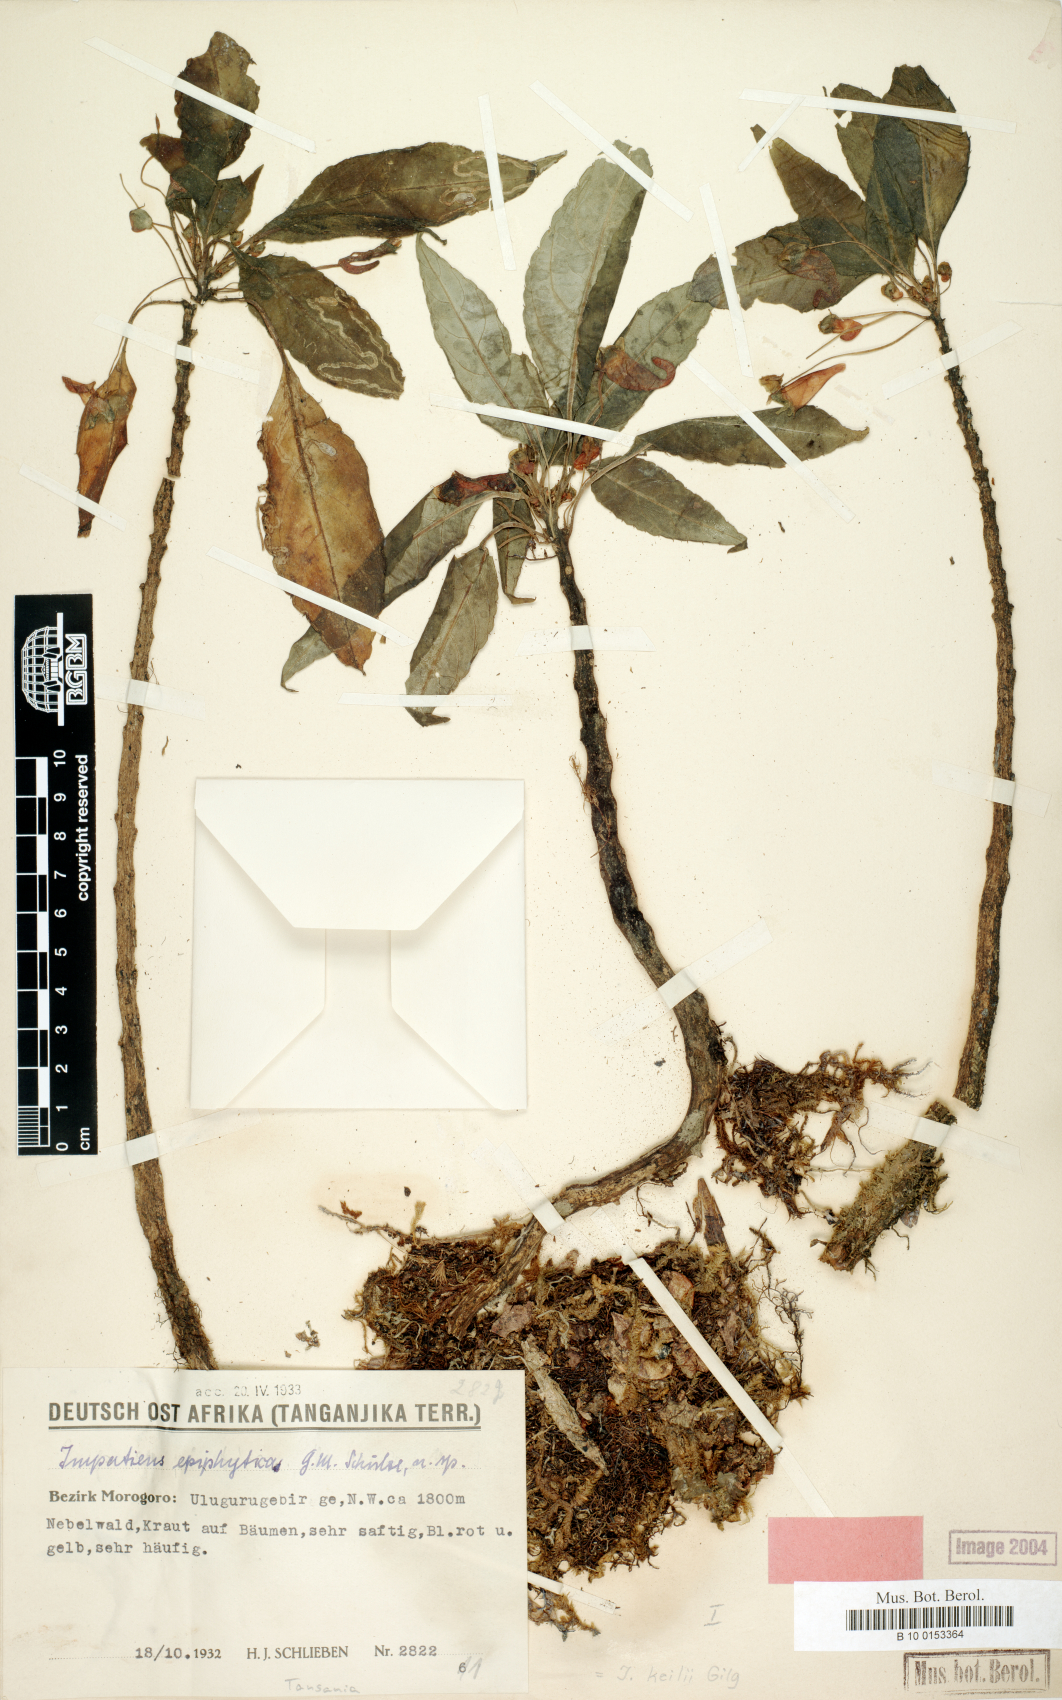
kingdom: Plantae
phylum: Tracheophyta
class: Magnoliopsida
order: Ericales
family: Balsaminaceae
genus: Impatiens
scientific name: Impatiens keilii
